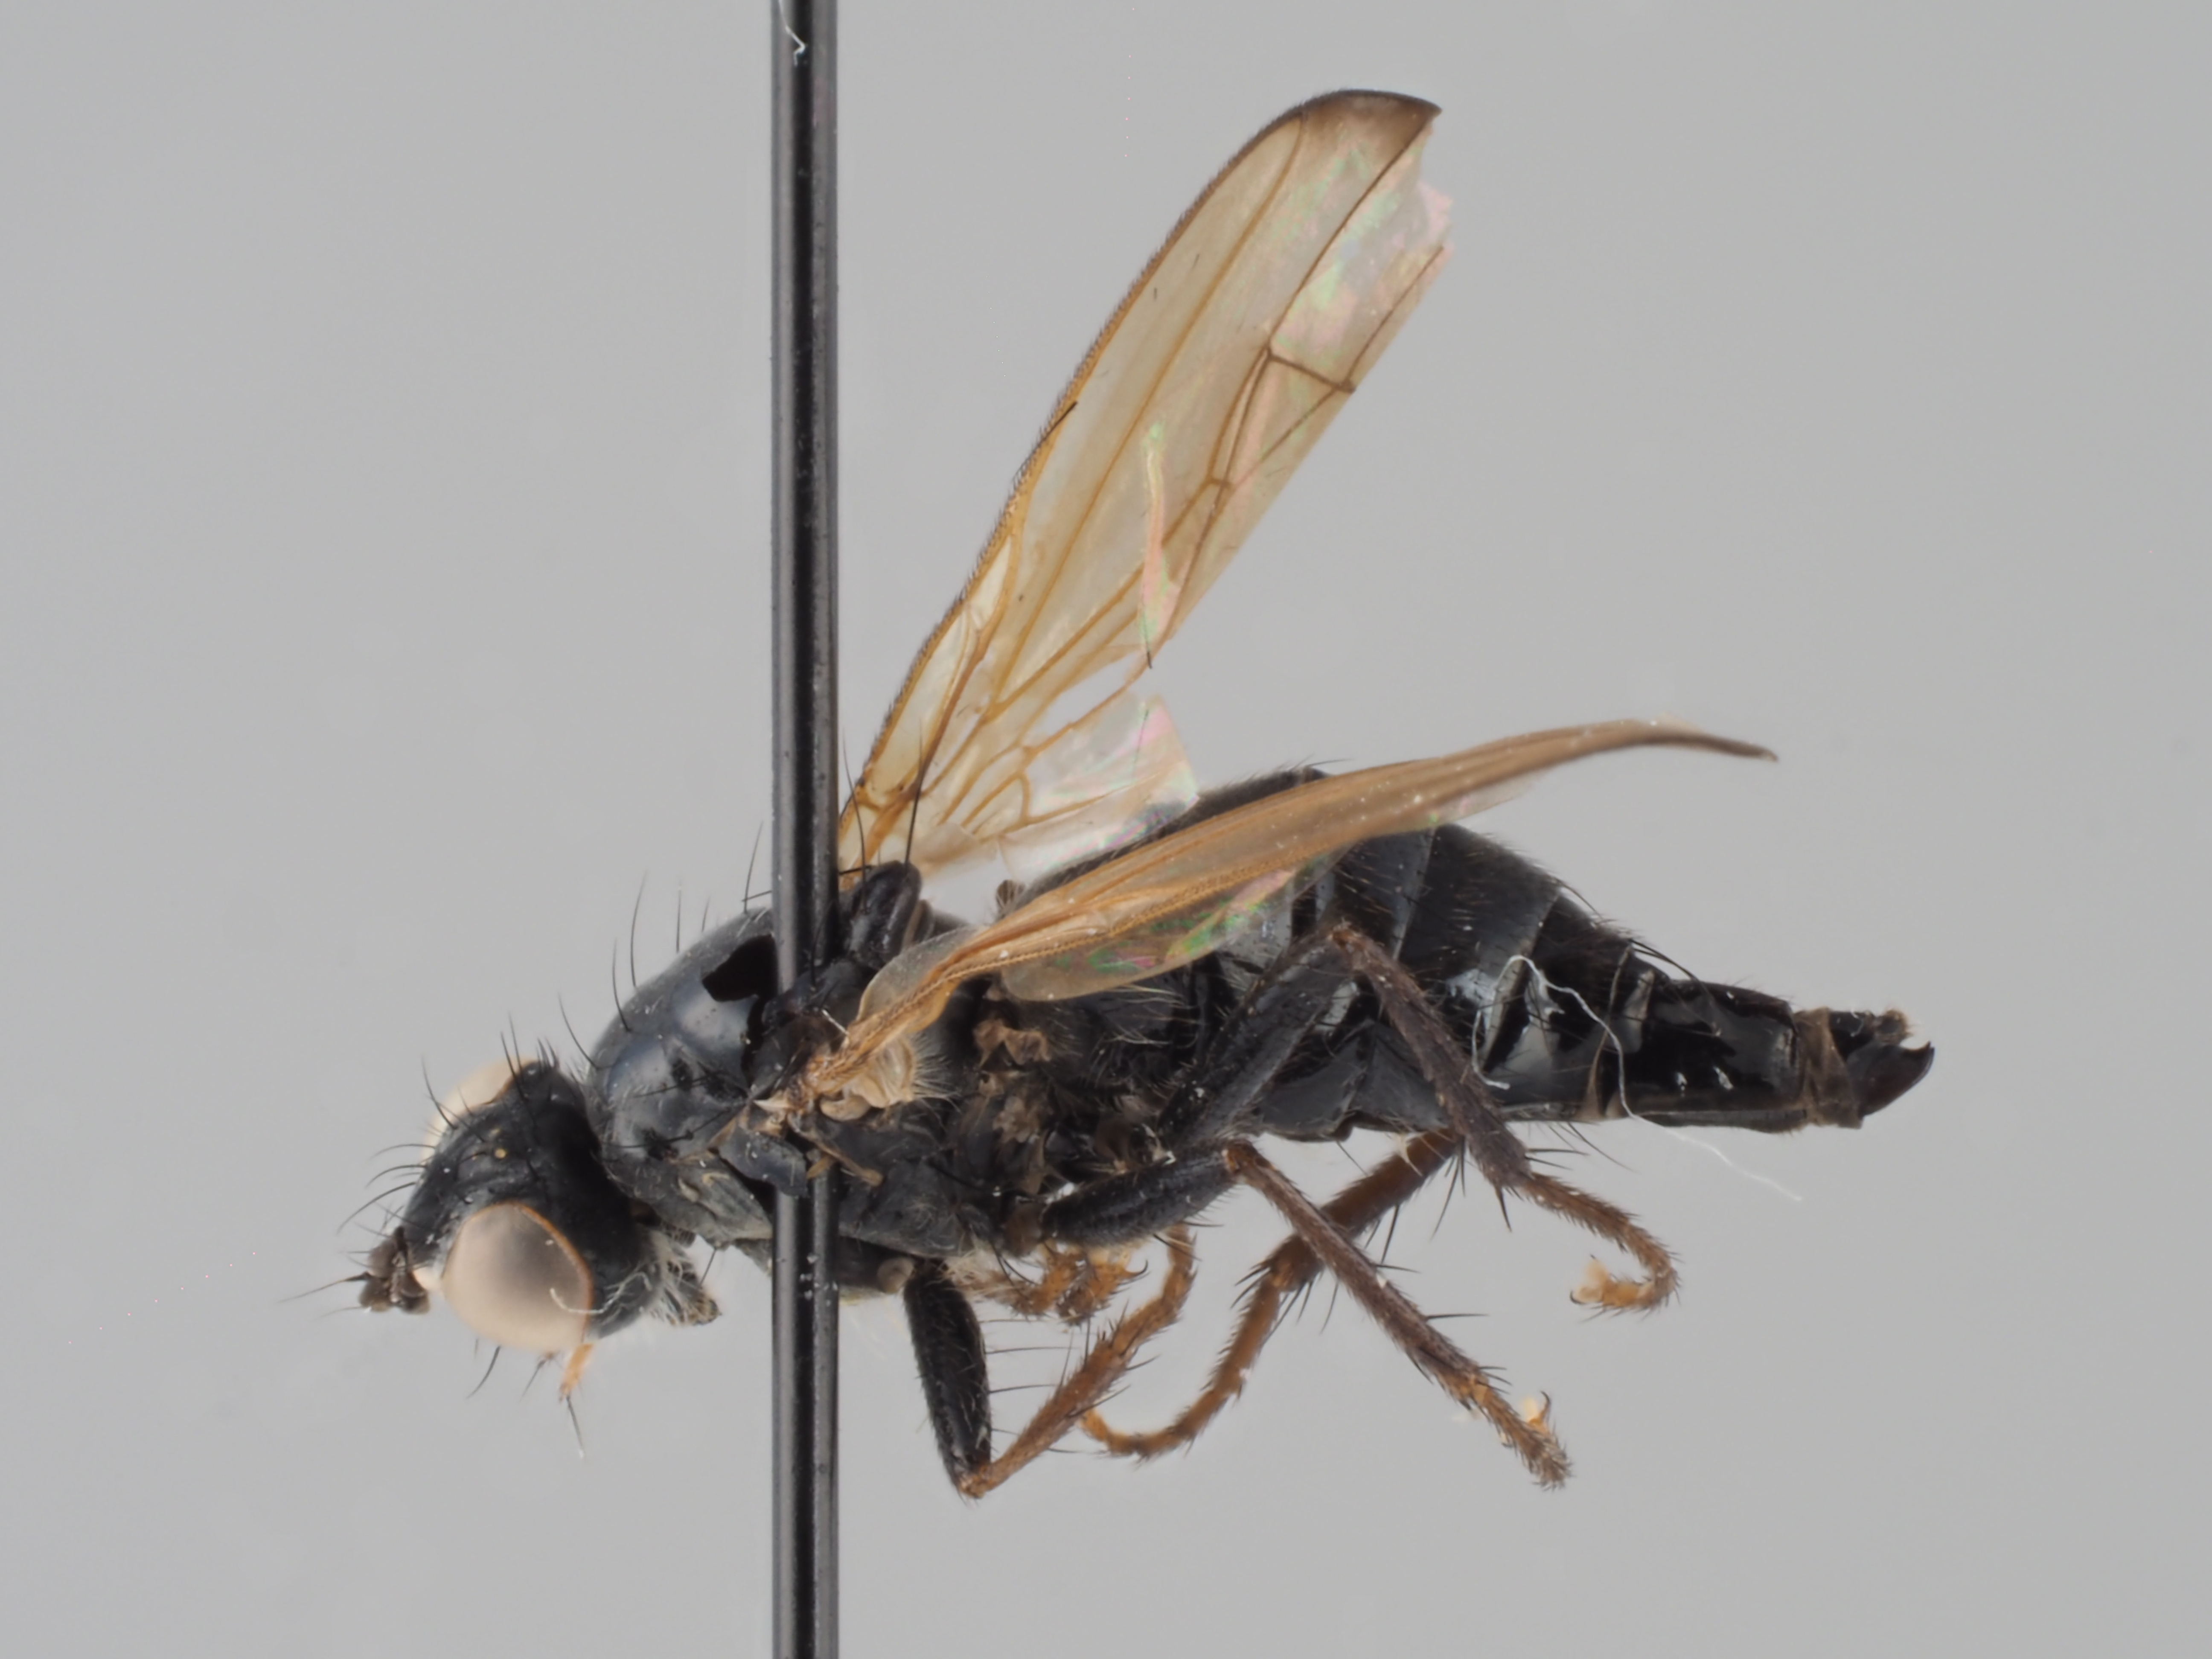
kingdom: Animalia
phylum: Arthropoda
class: Insecta
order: Diptera
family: Scathophagidae
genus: Cordilura
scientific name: Cordilura ustulata
